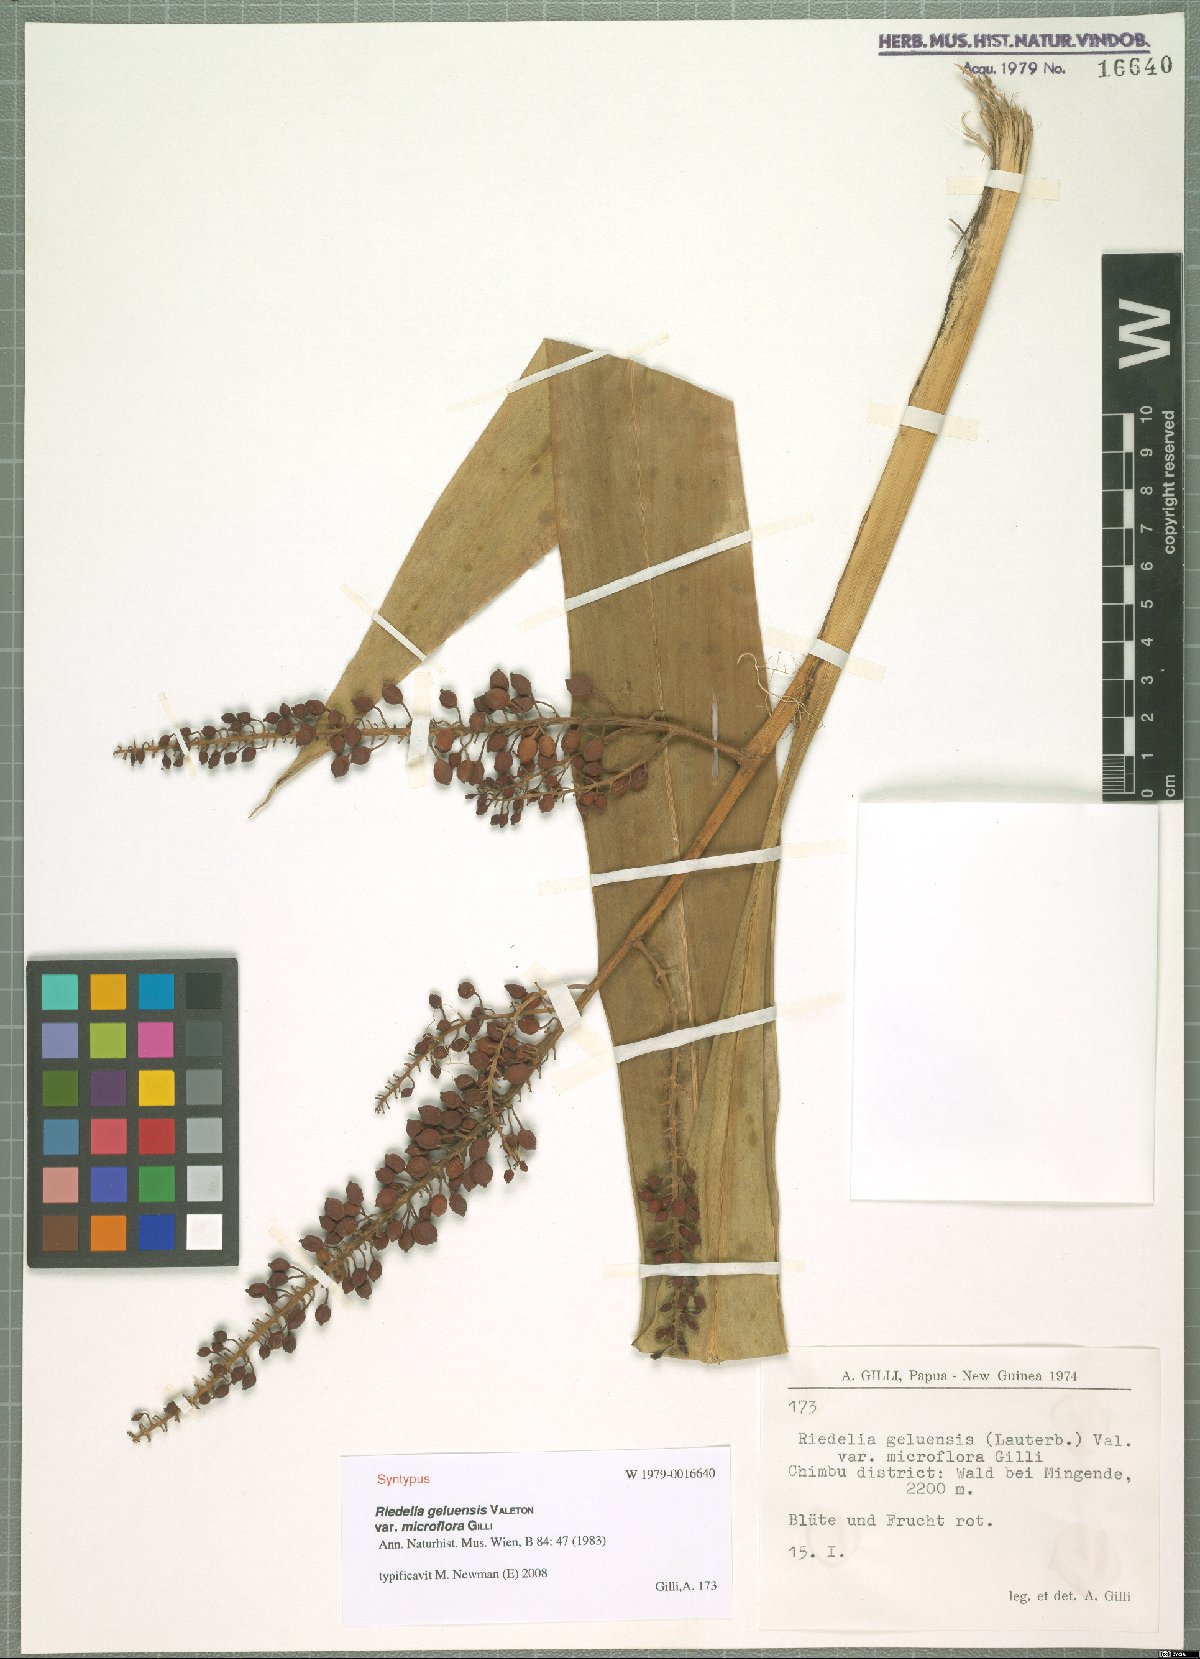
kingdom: Plantae
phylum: Tracheophyta
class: Liliopsida
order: Zingiberales
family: Zingiberaceae
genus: Riedelia
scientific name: Riedelia geluensis
